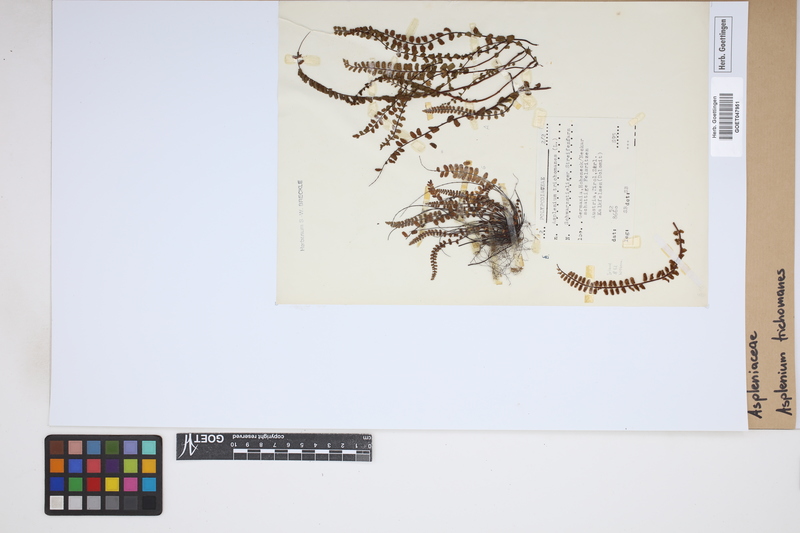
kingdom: Plantae
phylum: Tracheophyta
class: Polypodiopsida
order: Polypodiales
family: Aspleniaceae
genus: Asplenium
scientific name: Asplenium trichomanes
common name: Maidenhair spleenwort
